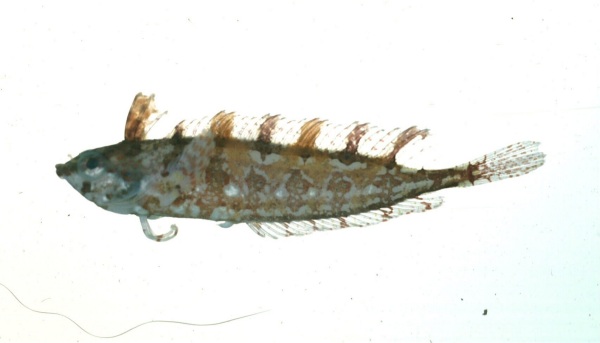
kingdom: Animalia
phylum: Chordata
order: Perciformes
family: Clinidae
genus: Pavoclinus
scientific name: Pavoclinus laurentii
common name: Rippled klipfish
